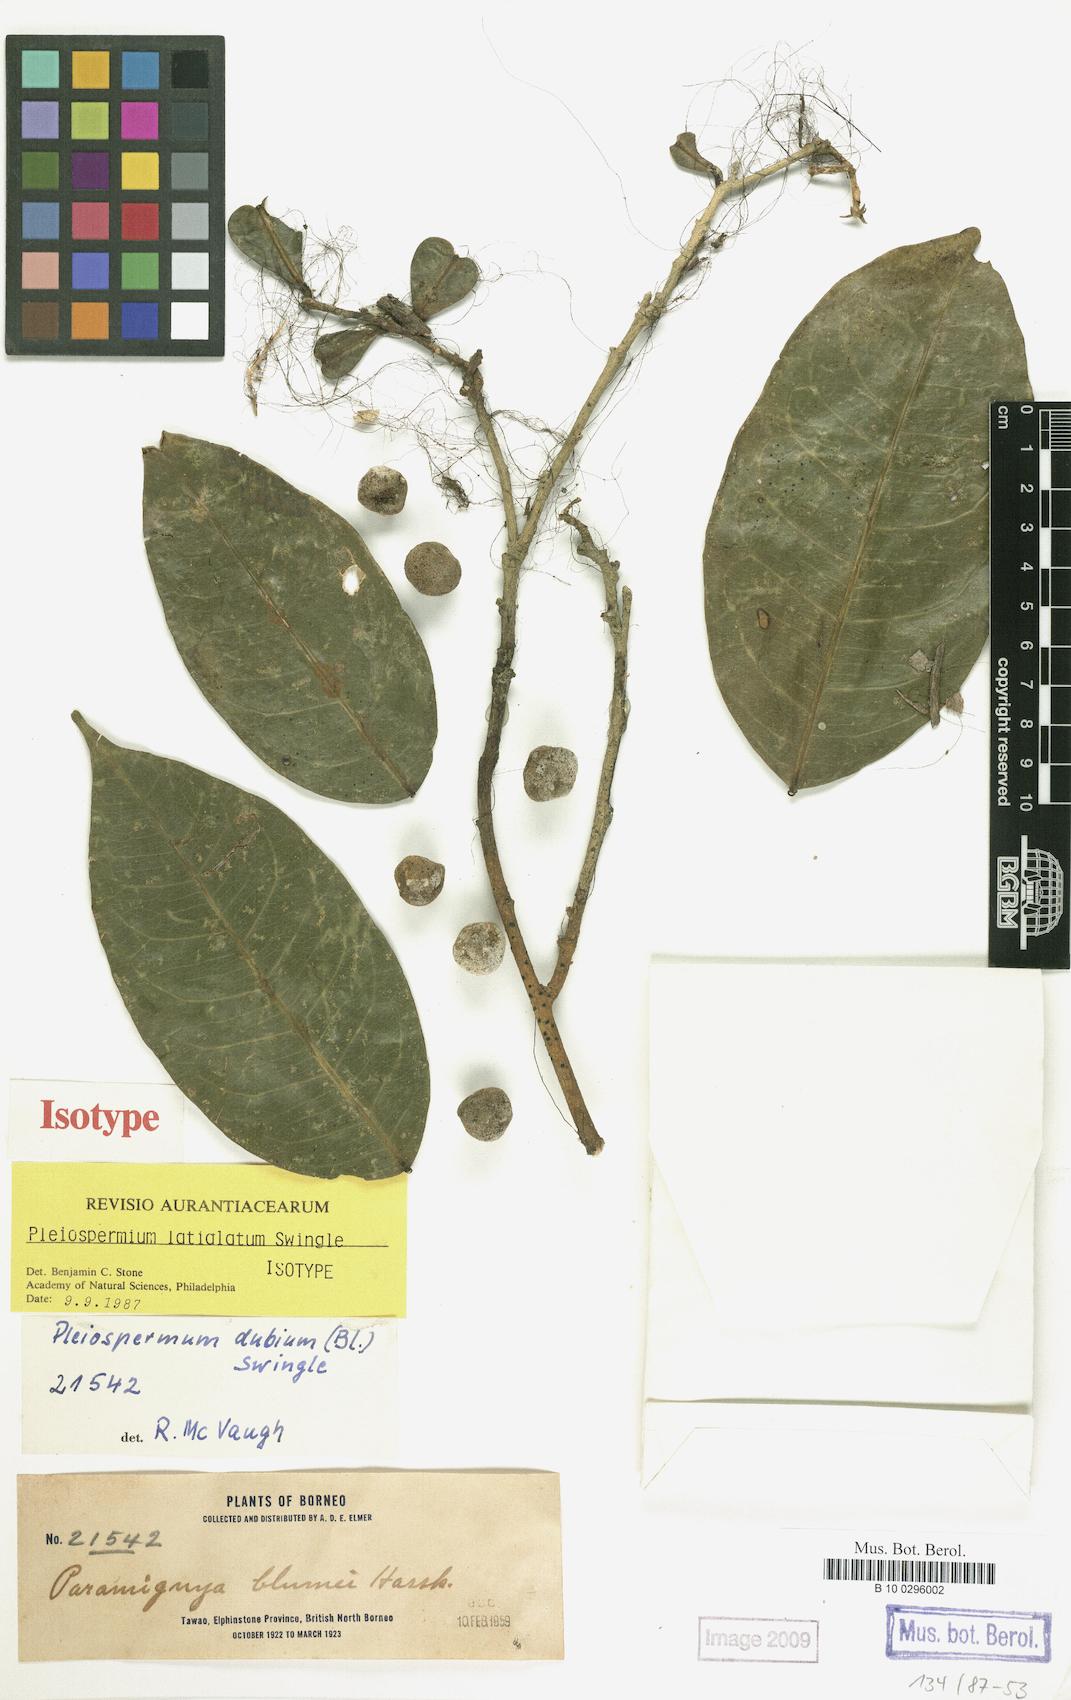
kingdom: Plantae
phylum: Tracheophyta
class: Magnoliopsida
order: Sapindales
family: Rutaceae
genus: Pleiospermium
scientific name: Pleiospermium latialatum
